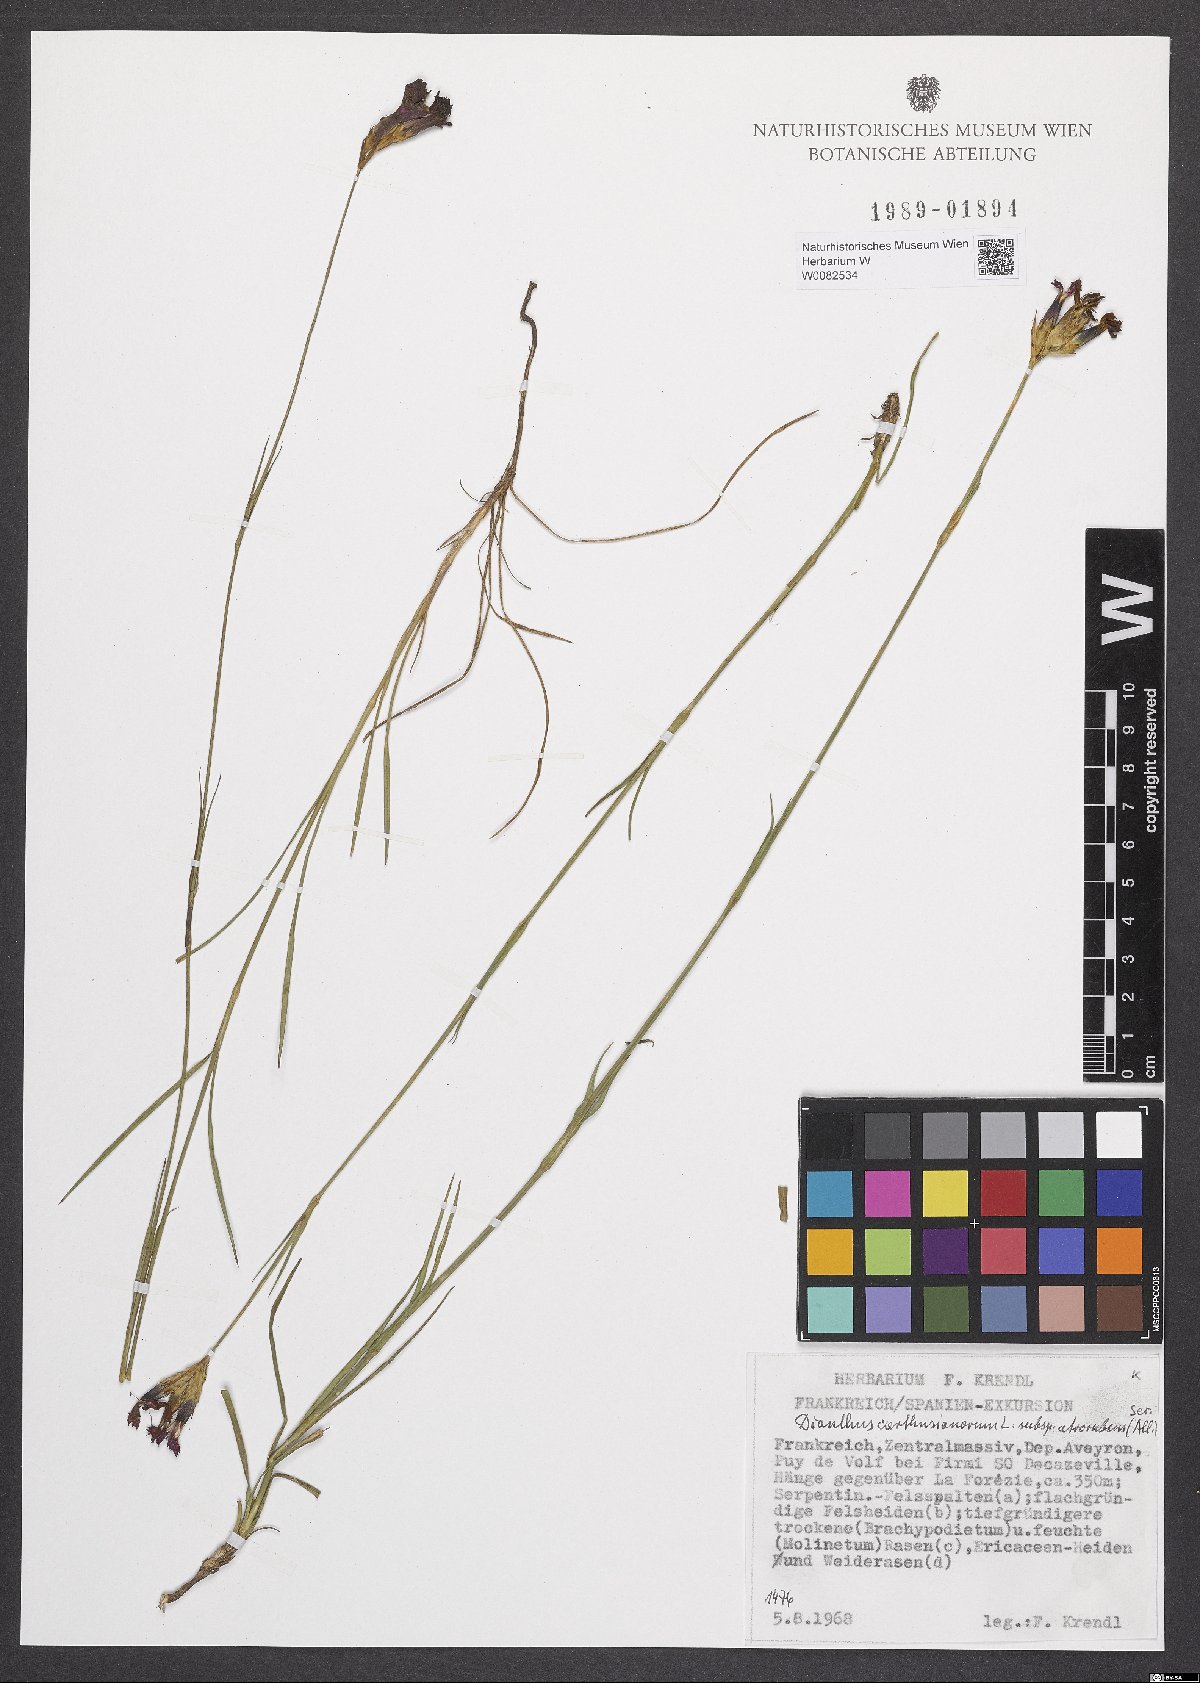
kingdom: Plantae
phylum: Tracheophyta
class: Magnoliopsida
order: Caryophyllales
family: Caryophyllaceae
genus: Dianthus
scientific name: Dianthus carthusianorum
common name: Carthusian pink
